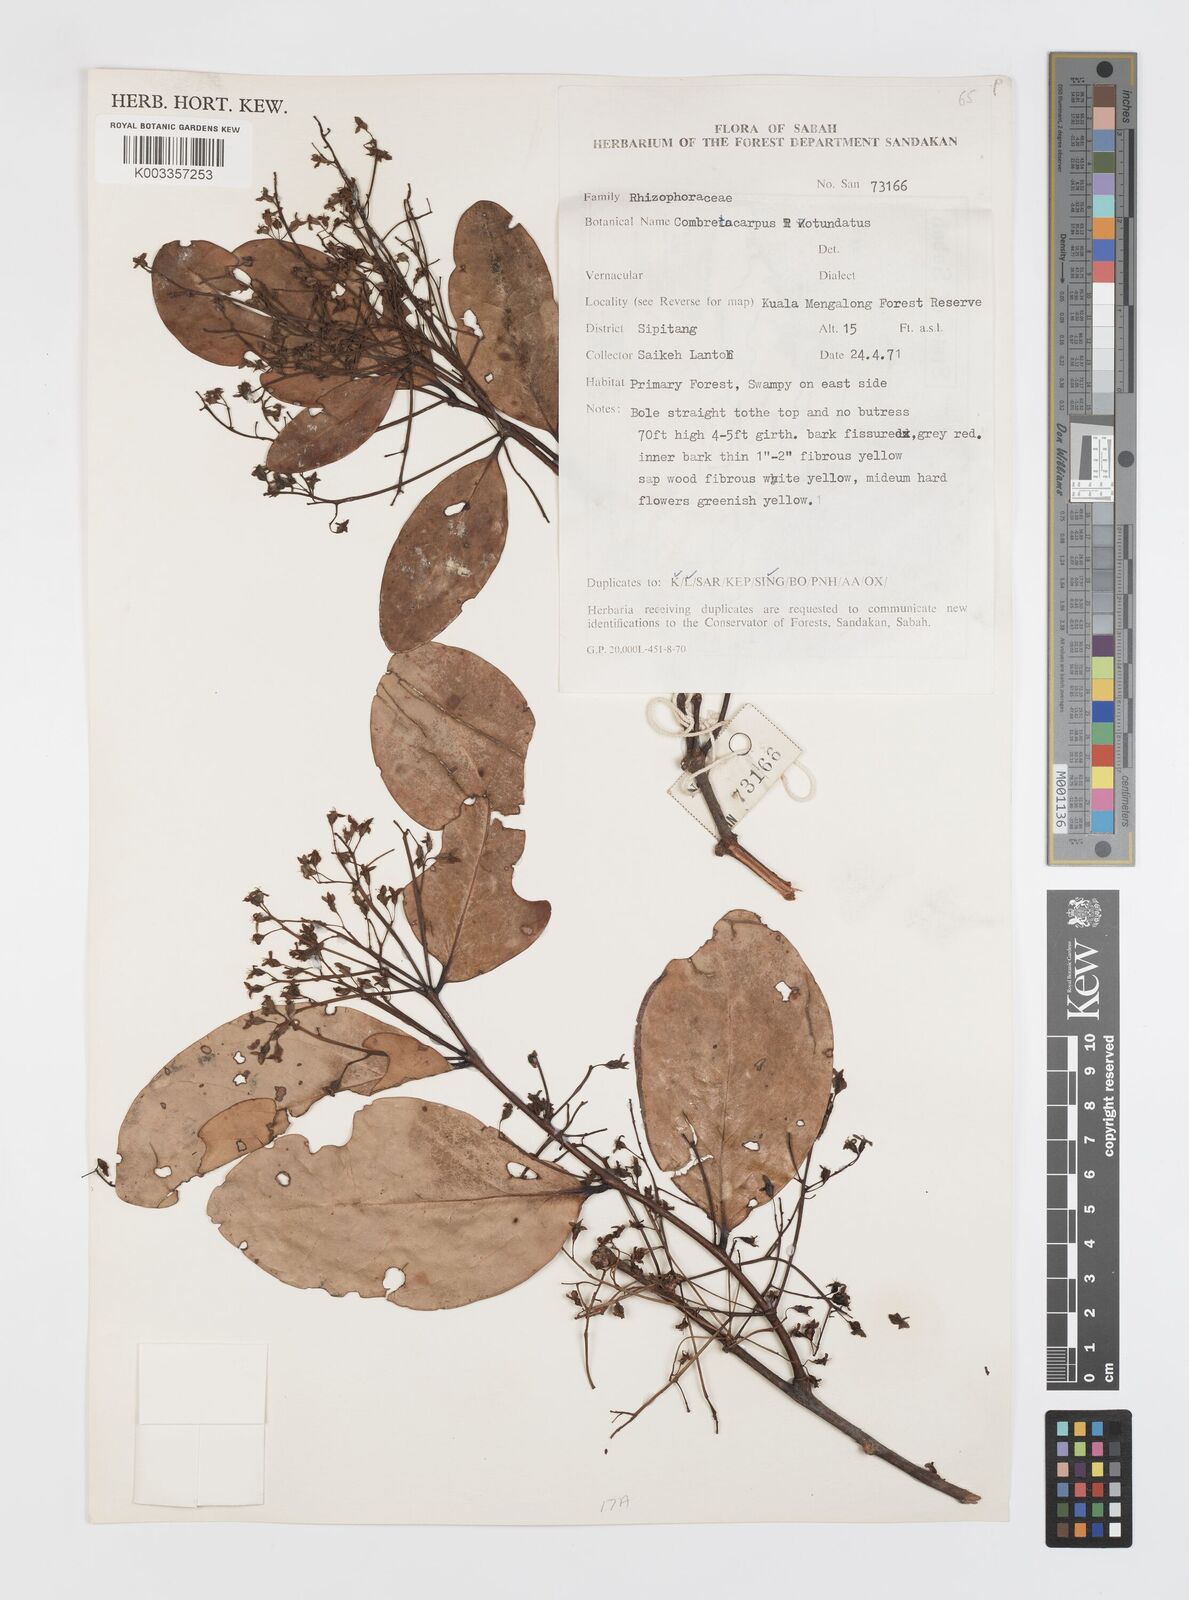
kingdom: Plantae
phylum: Tracheophyta
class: Magnoliopsida
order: Cucurbitales
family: Anisophylleaceae
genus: Combretocarpus
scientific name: Combretocarpus rotundatus
